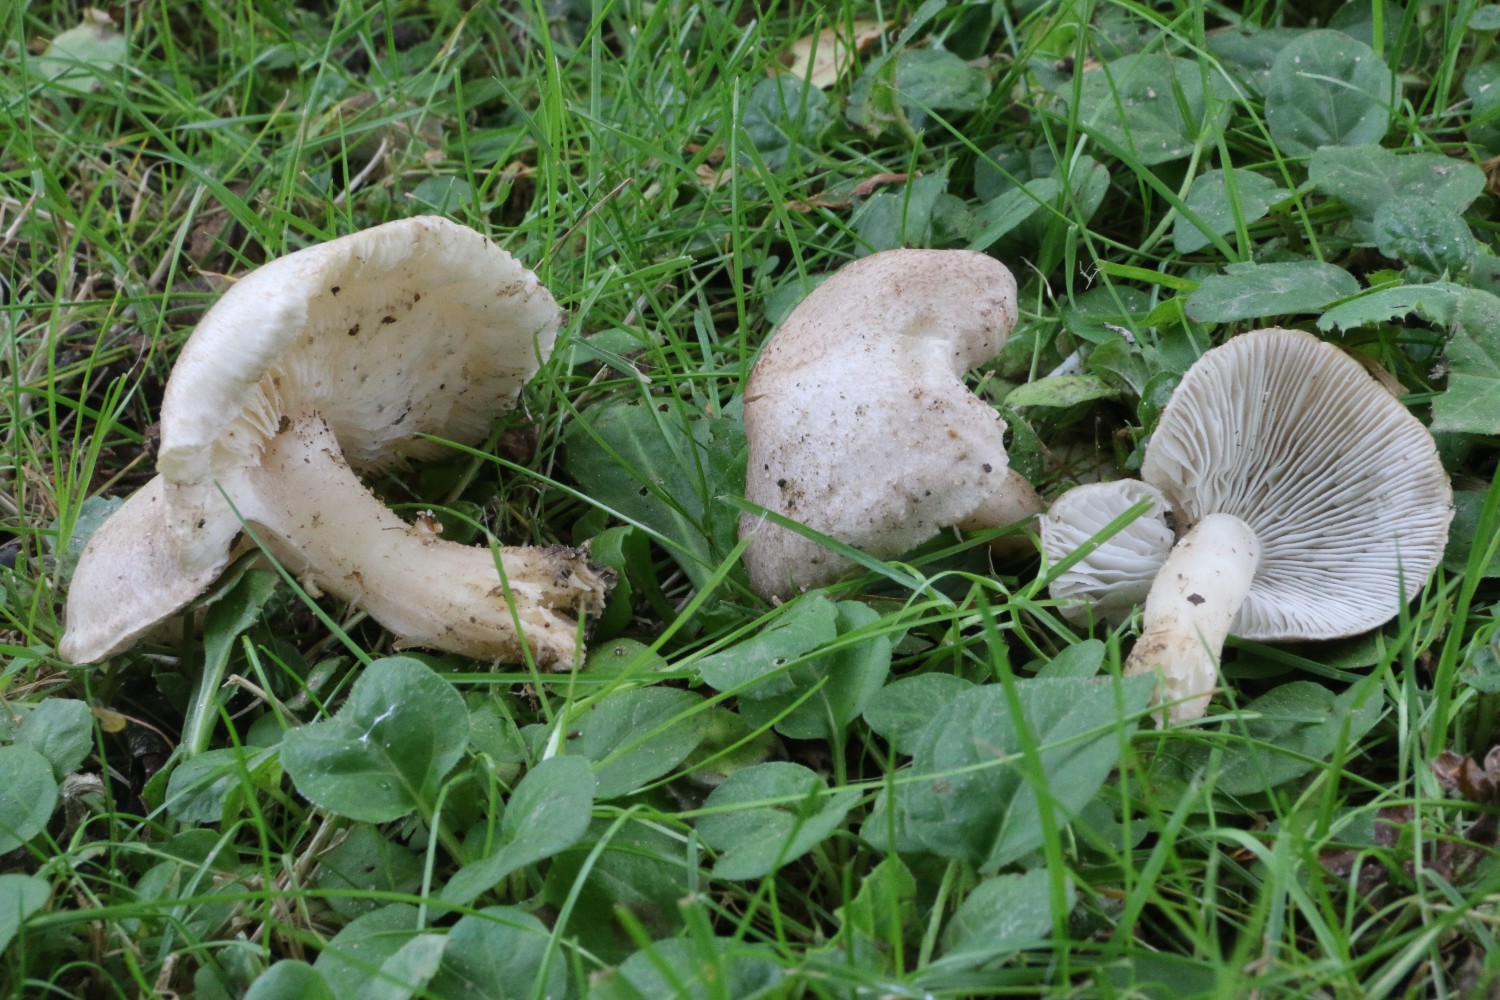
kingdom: Fungi
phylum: Basidiomycota
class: Agaricomycetes
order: Agaricales
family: Tricholomataceae
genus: Tricholoma
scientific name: Tricholoma argyraceum
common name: spids ridderhat
